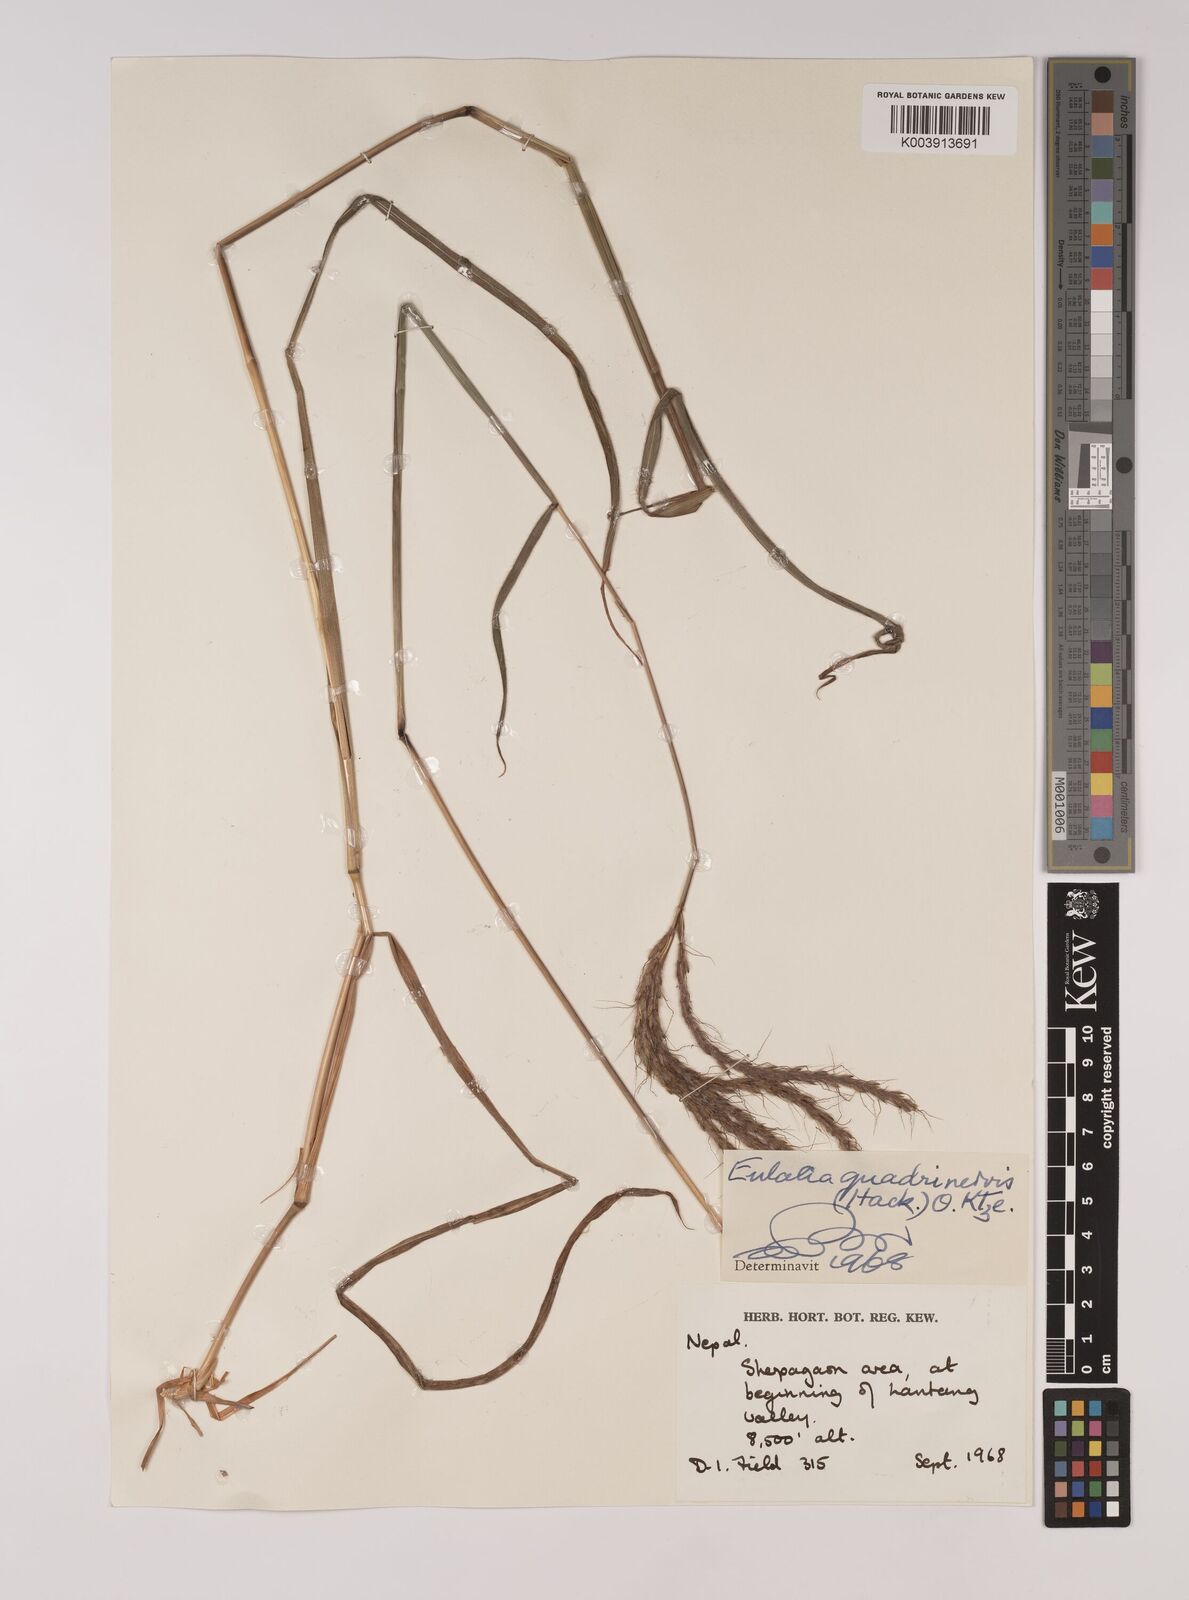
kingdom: Plantae
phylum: Tracheophyta
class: Liliopsida
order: Poales
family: Poaceae
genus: Pseudopogonatherum
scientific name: Pseudopogonatherum quadrinerve
